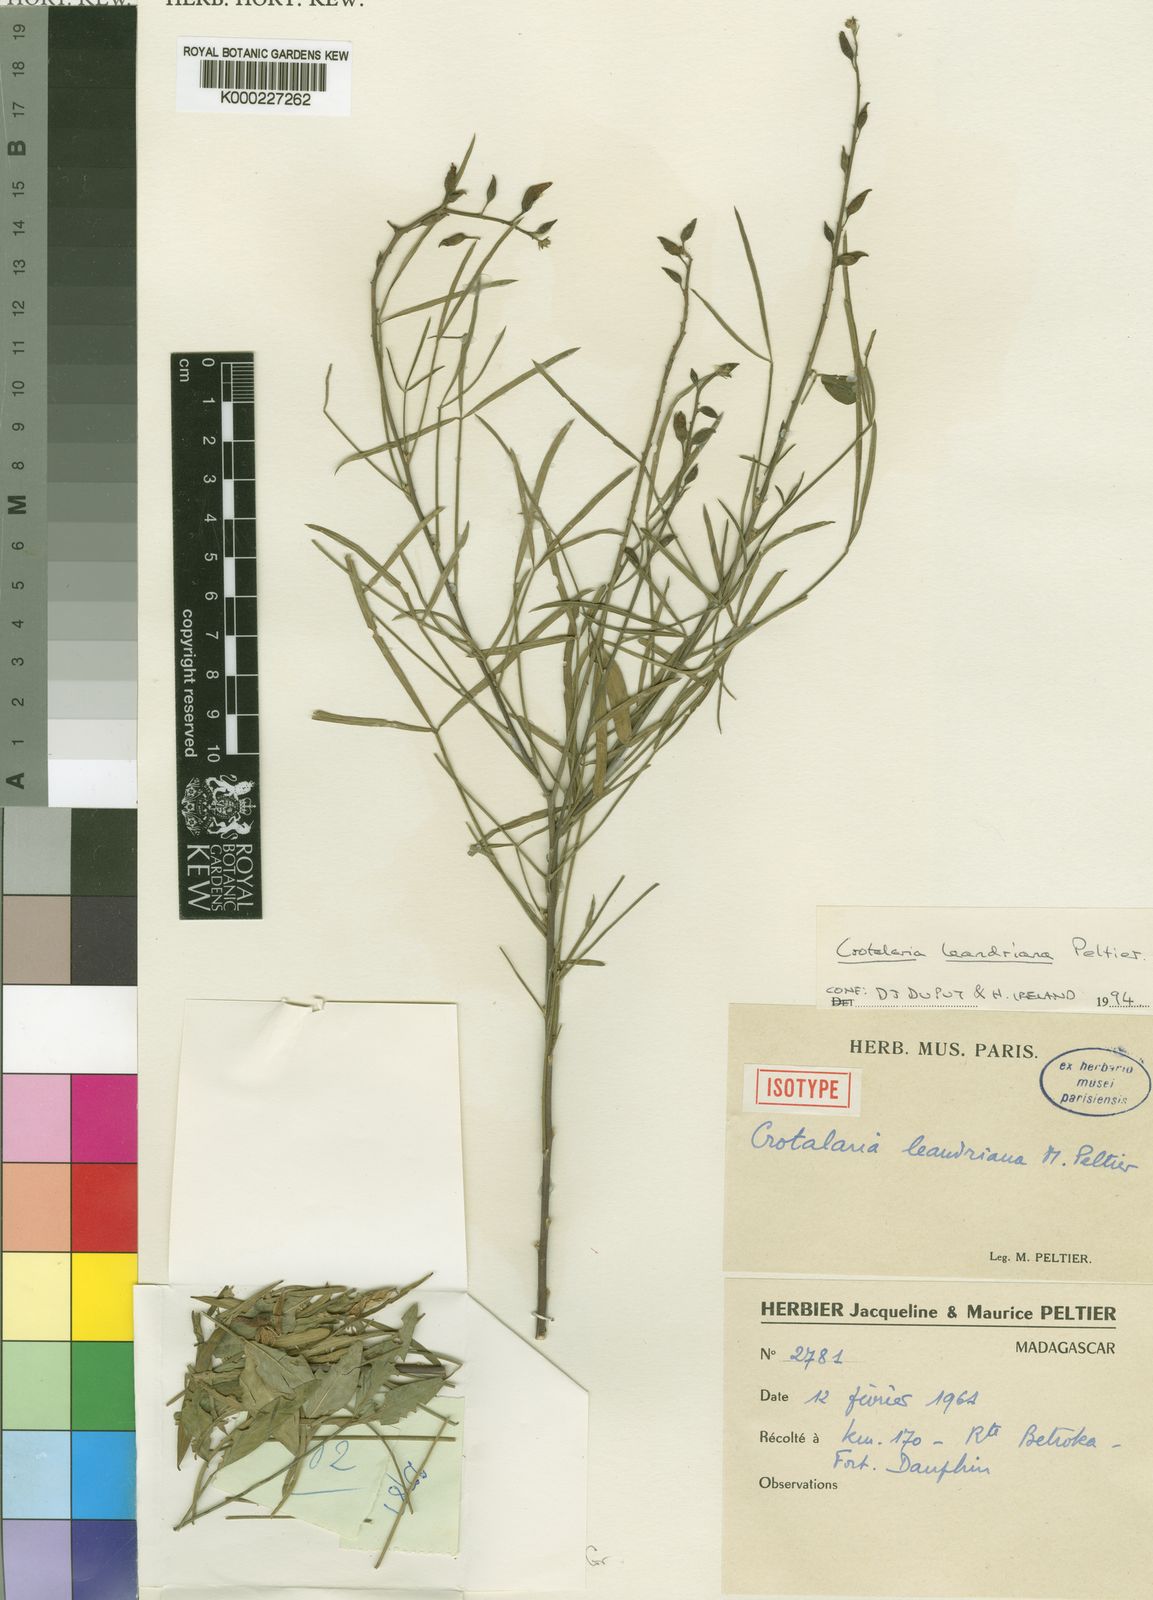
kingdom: Plantae
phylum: Tracheophyta
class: Magnoliopsida
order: Fabales
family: Fabaceae
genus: Crotalaria
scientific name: Crotalaria leandriana
